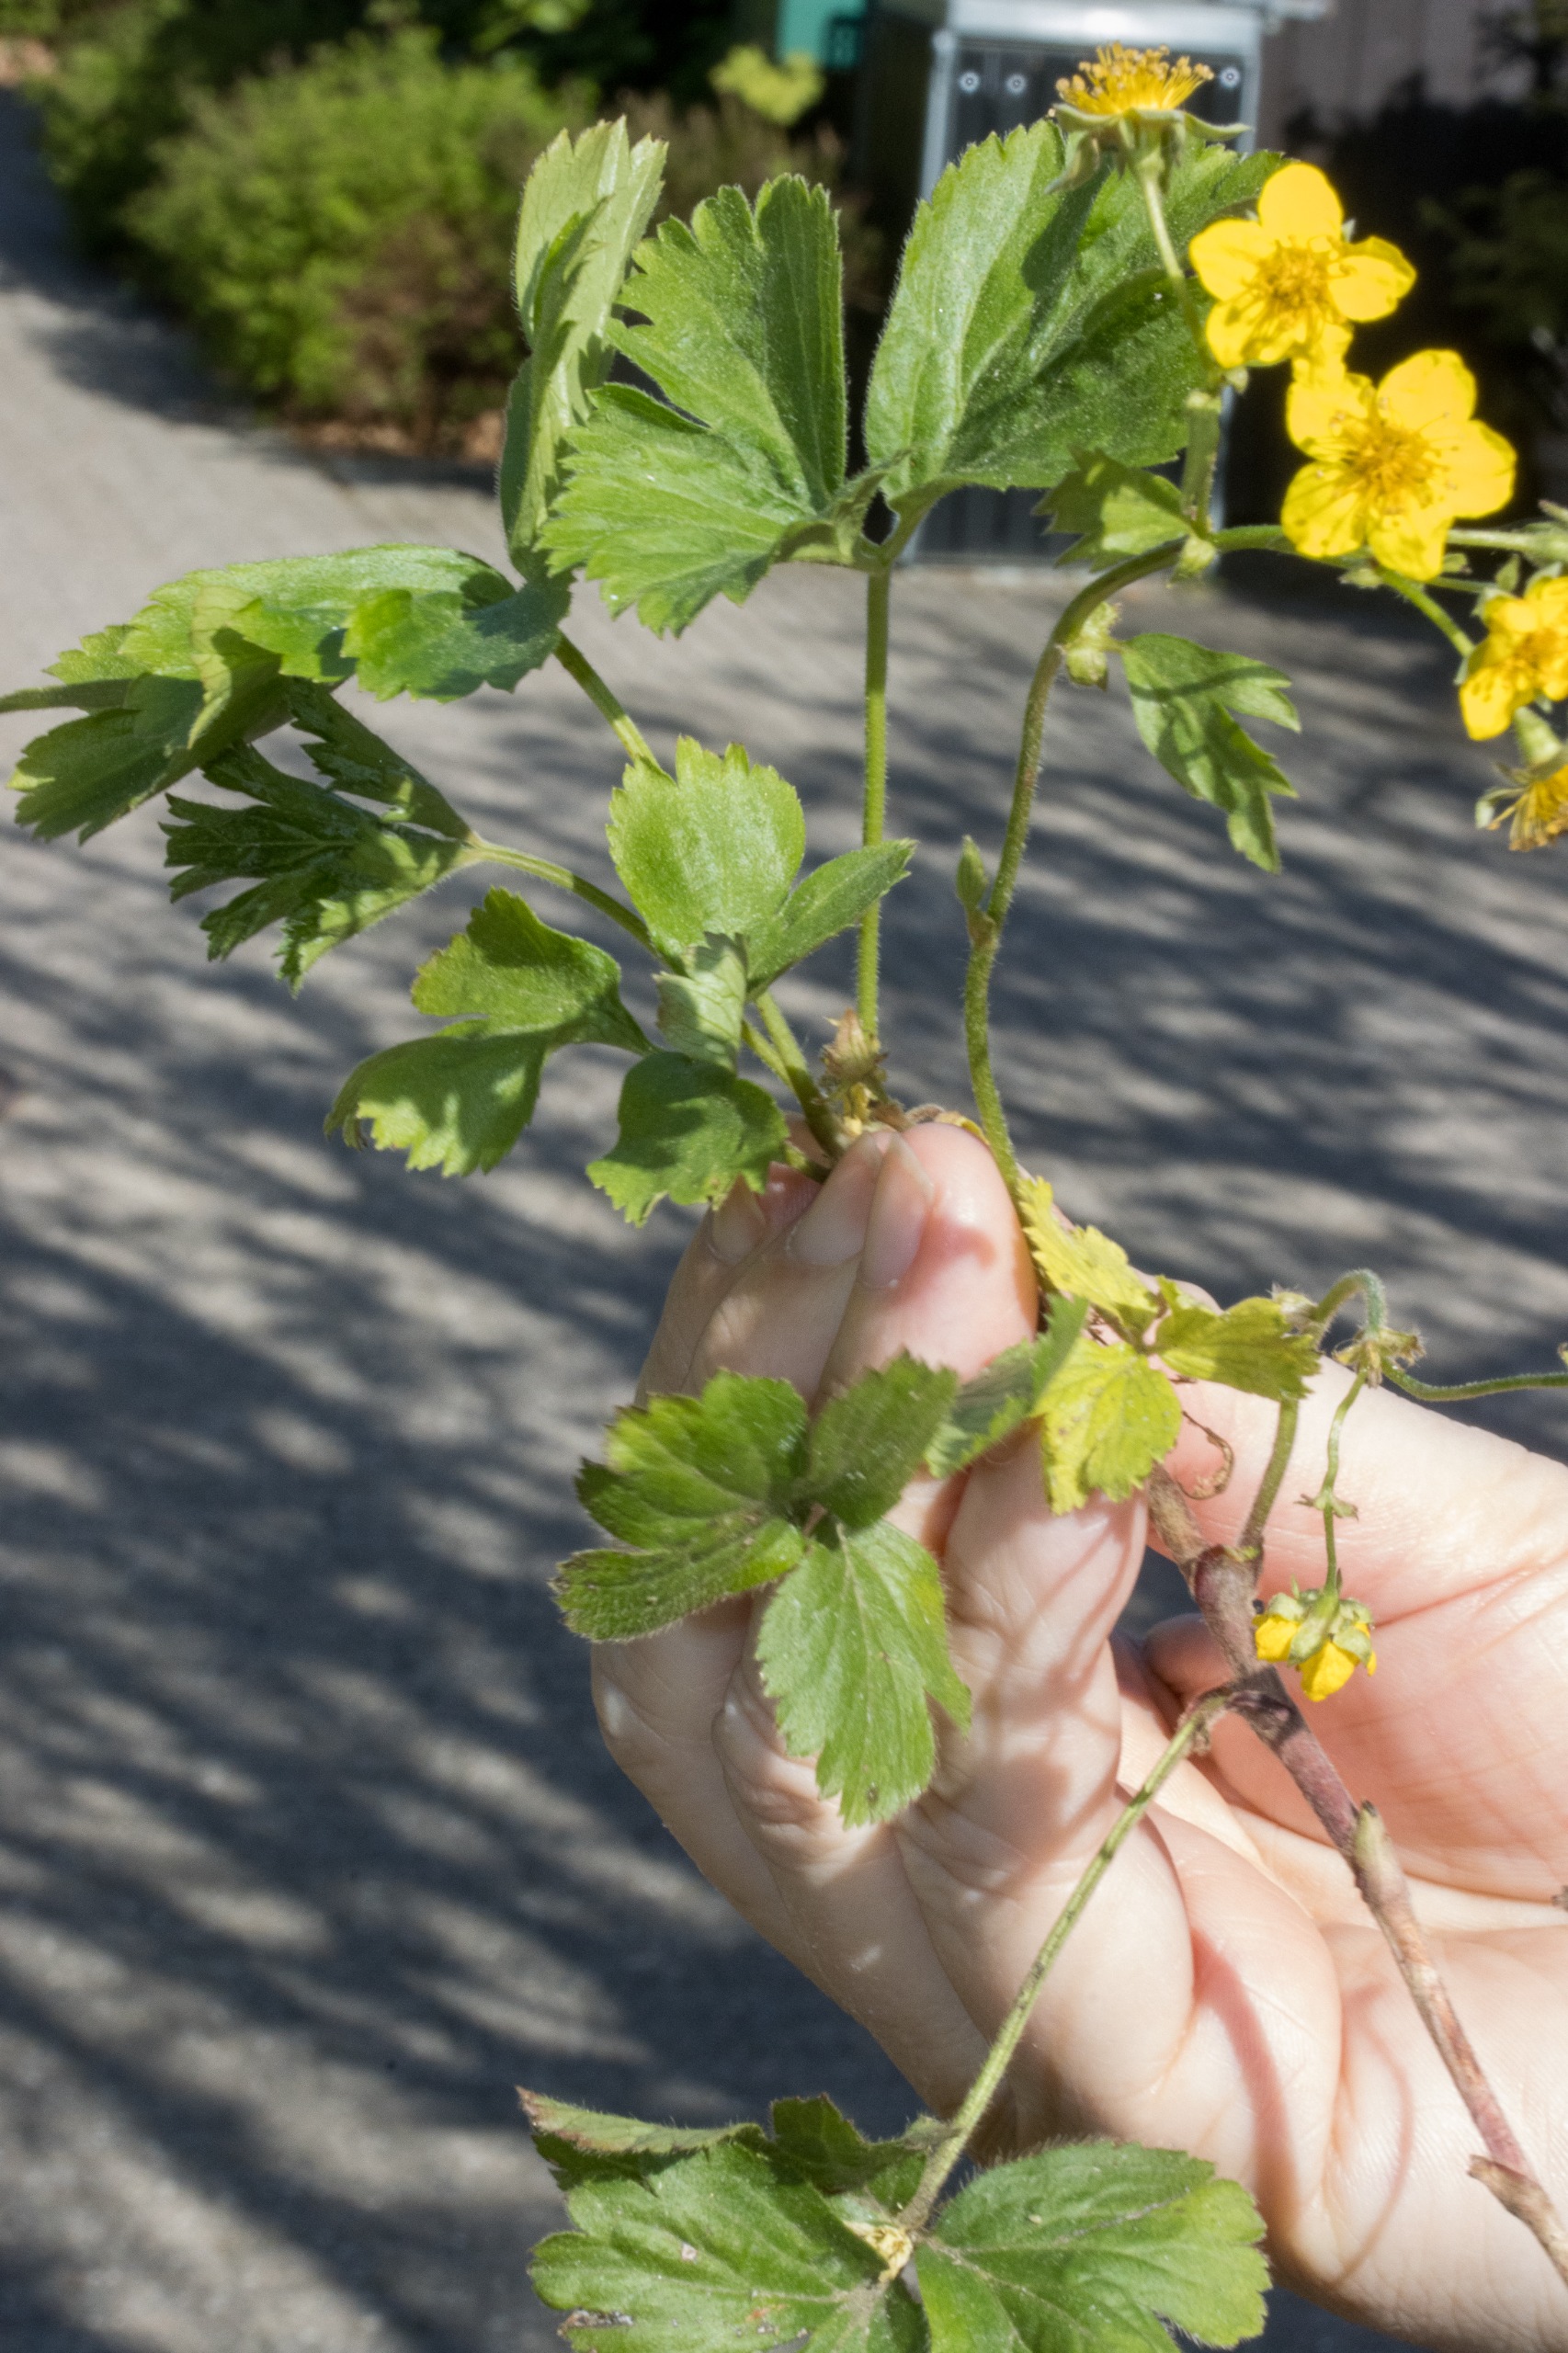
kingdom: Plantae
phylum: Tracheophyta
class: Magnoliopsida
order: Rosales
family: Rosaceae
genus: Geum
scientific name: Geum ternatum
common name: Krybende guldjordbær
